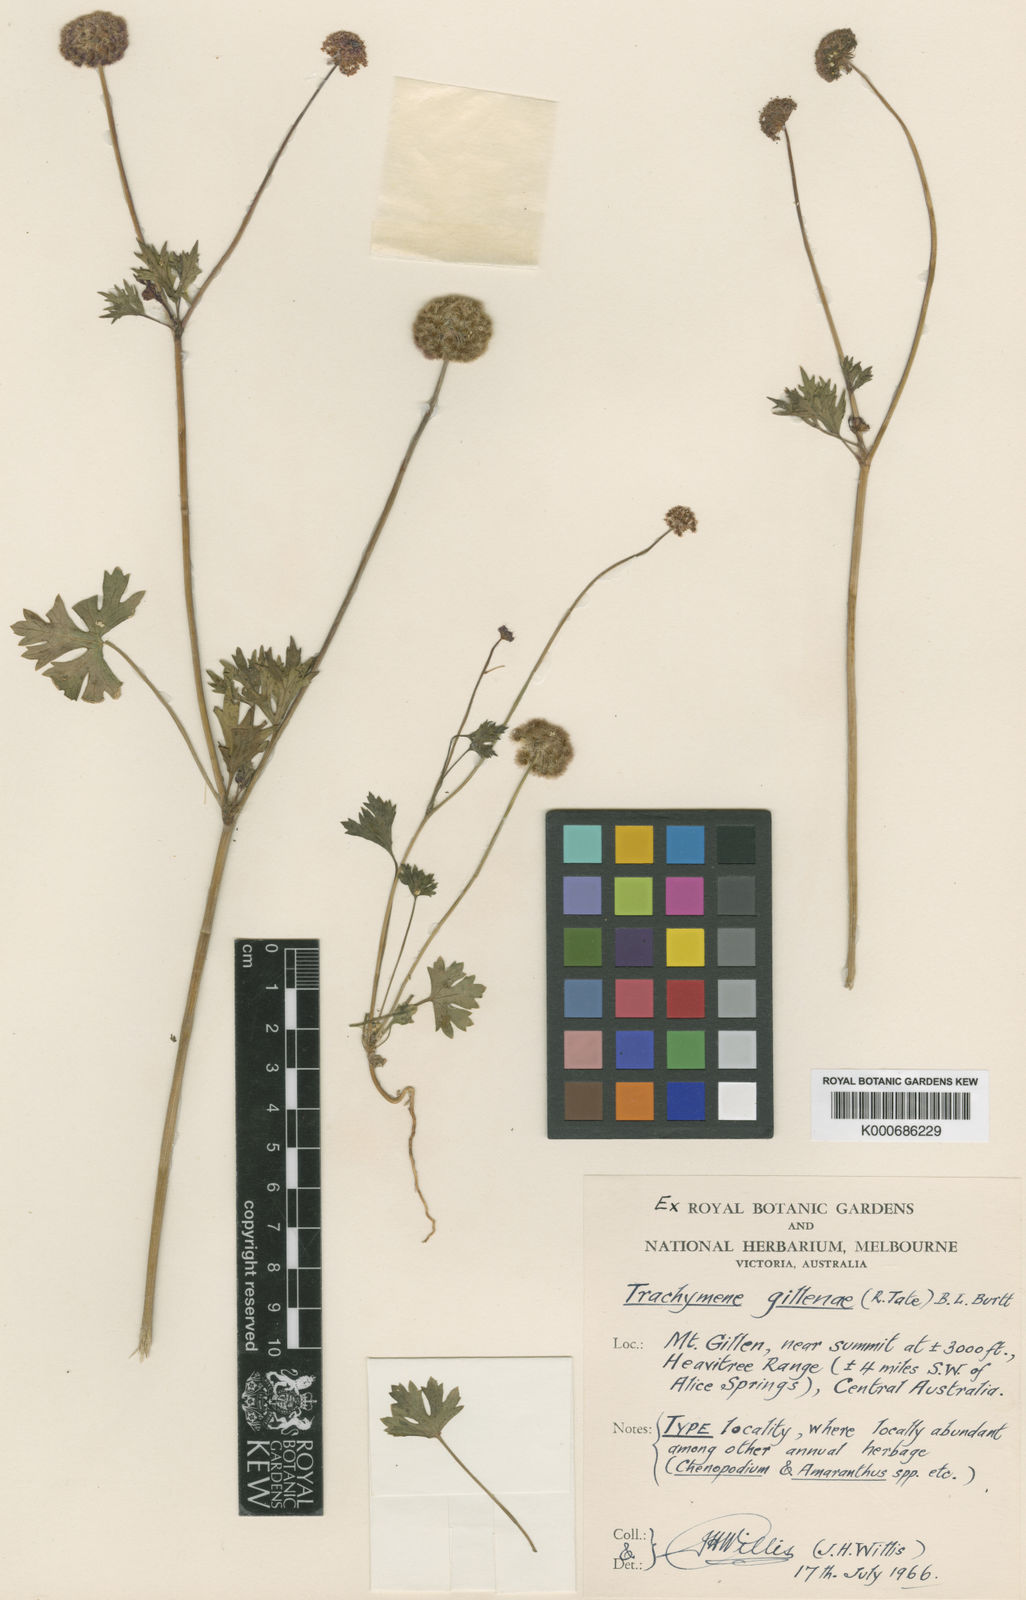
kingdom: Plantae
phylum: Tracheophyta
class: Magnoliopsida
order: Apiales
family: Araliaceae
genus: Trachymene
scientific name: Trachymene gilleniae
